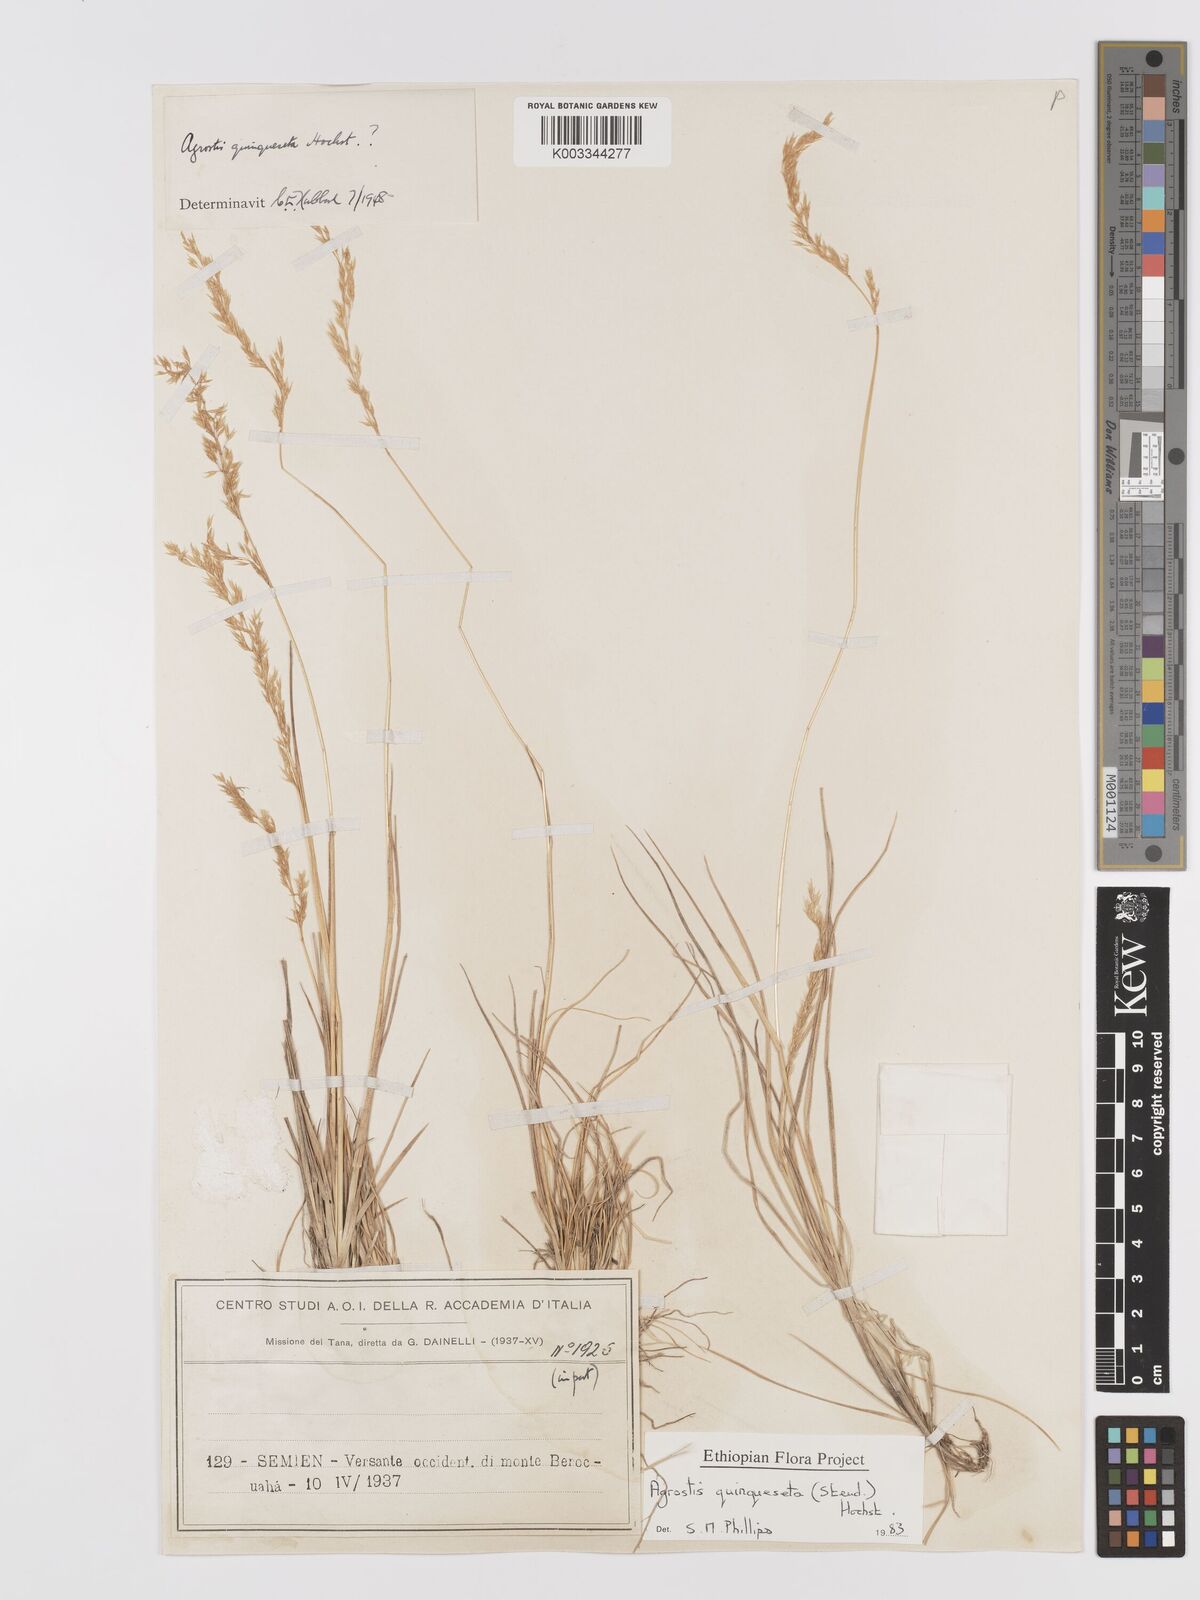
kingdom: Plantae
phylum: Tracheophyta
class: Liliopsida
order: Poales
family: Poaceae
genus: Agrostis
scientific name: Agrostis quinqueseta
